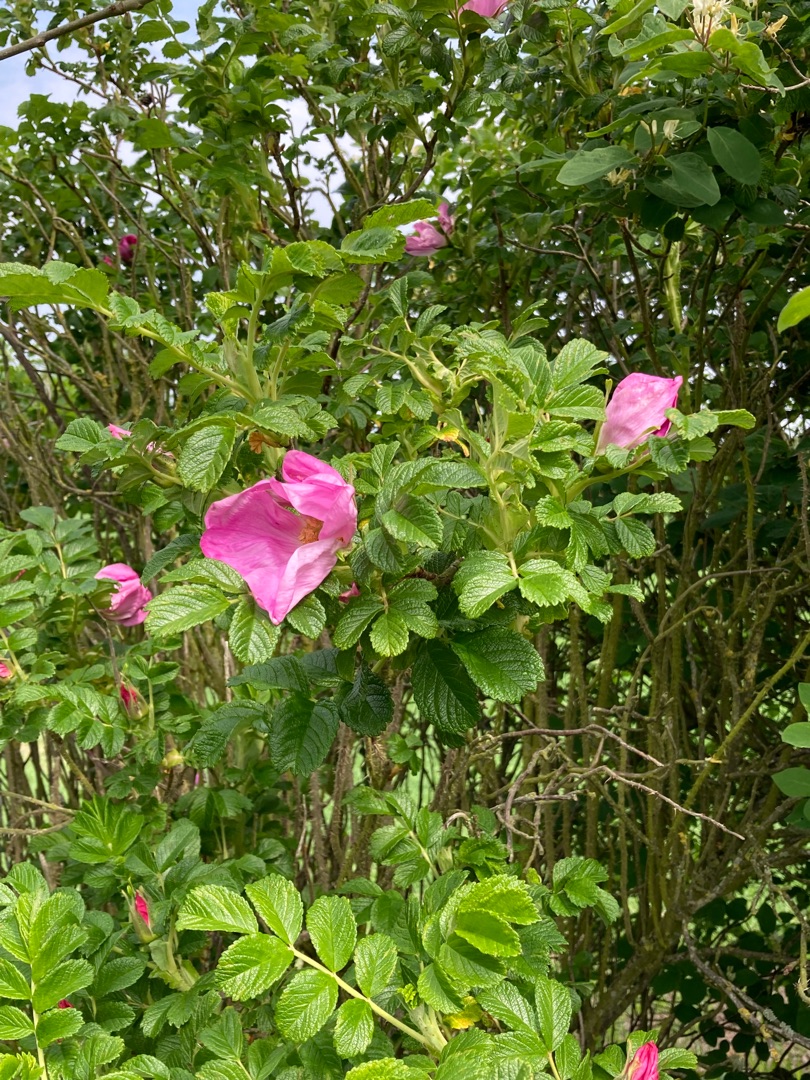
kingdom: Plantae
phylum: Tracheophyta
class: Magnoliopsida
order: Rosales
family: Rosaceae
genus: Rosa
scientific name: Rosa rugosa
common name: Rynket rose
